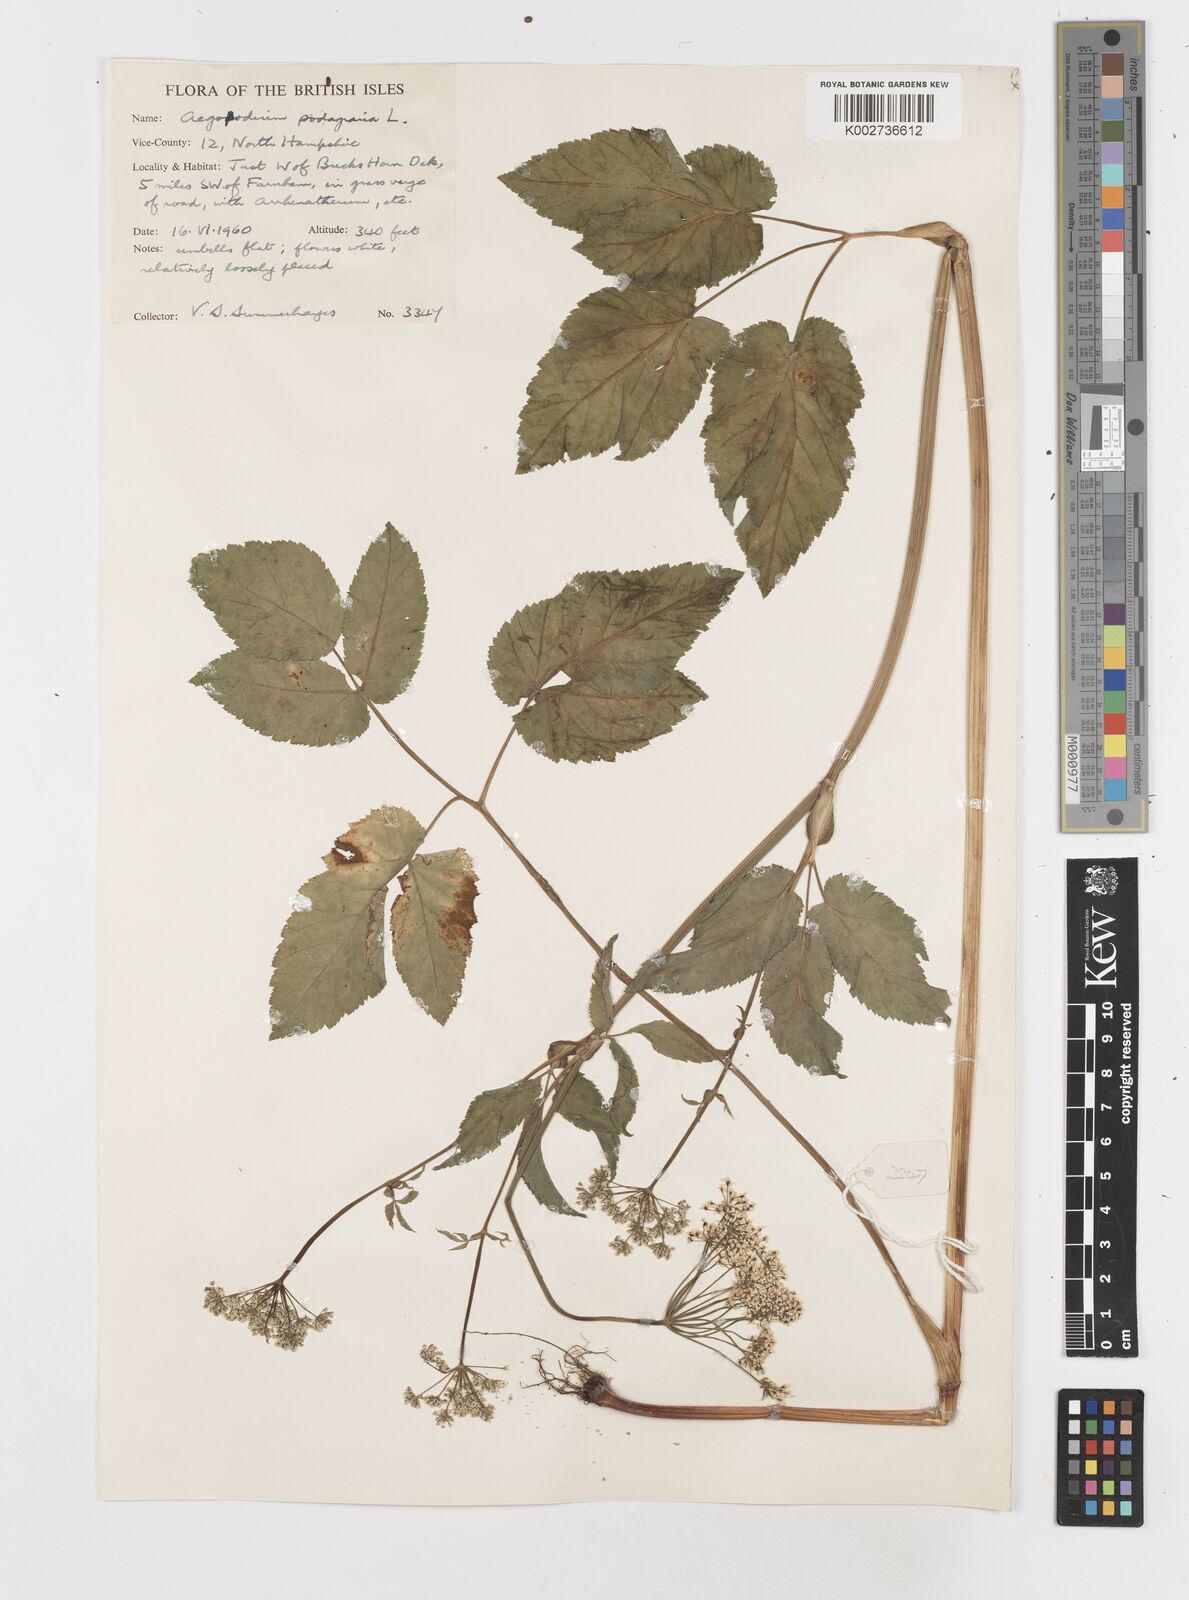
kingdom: Plantae
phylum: Tracheophyta
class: Magnoliopsida
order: Apiales
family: Apiaceae
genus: Aegopodium
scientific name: Aegopodium
